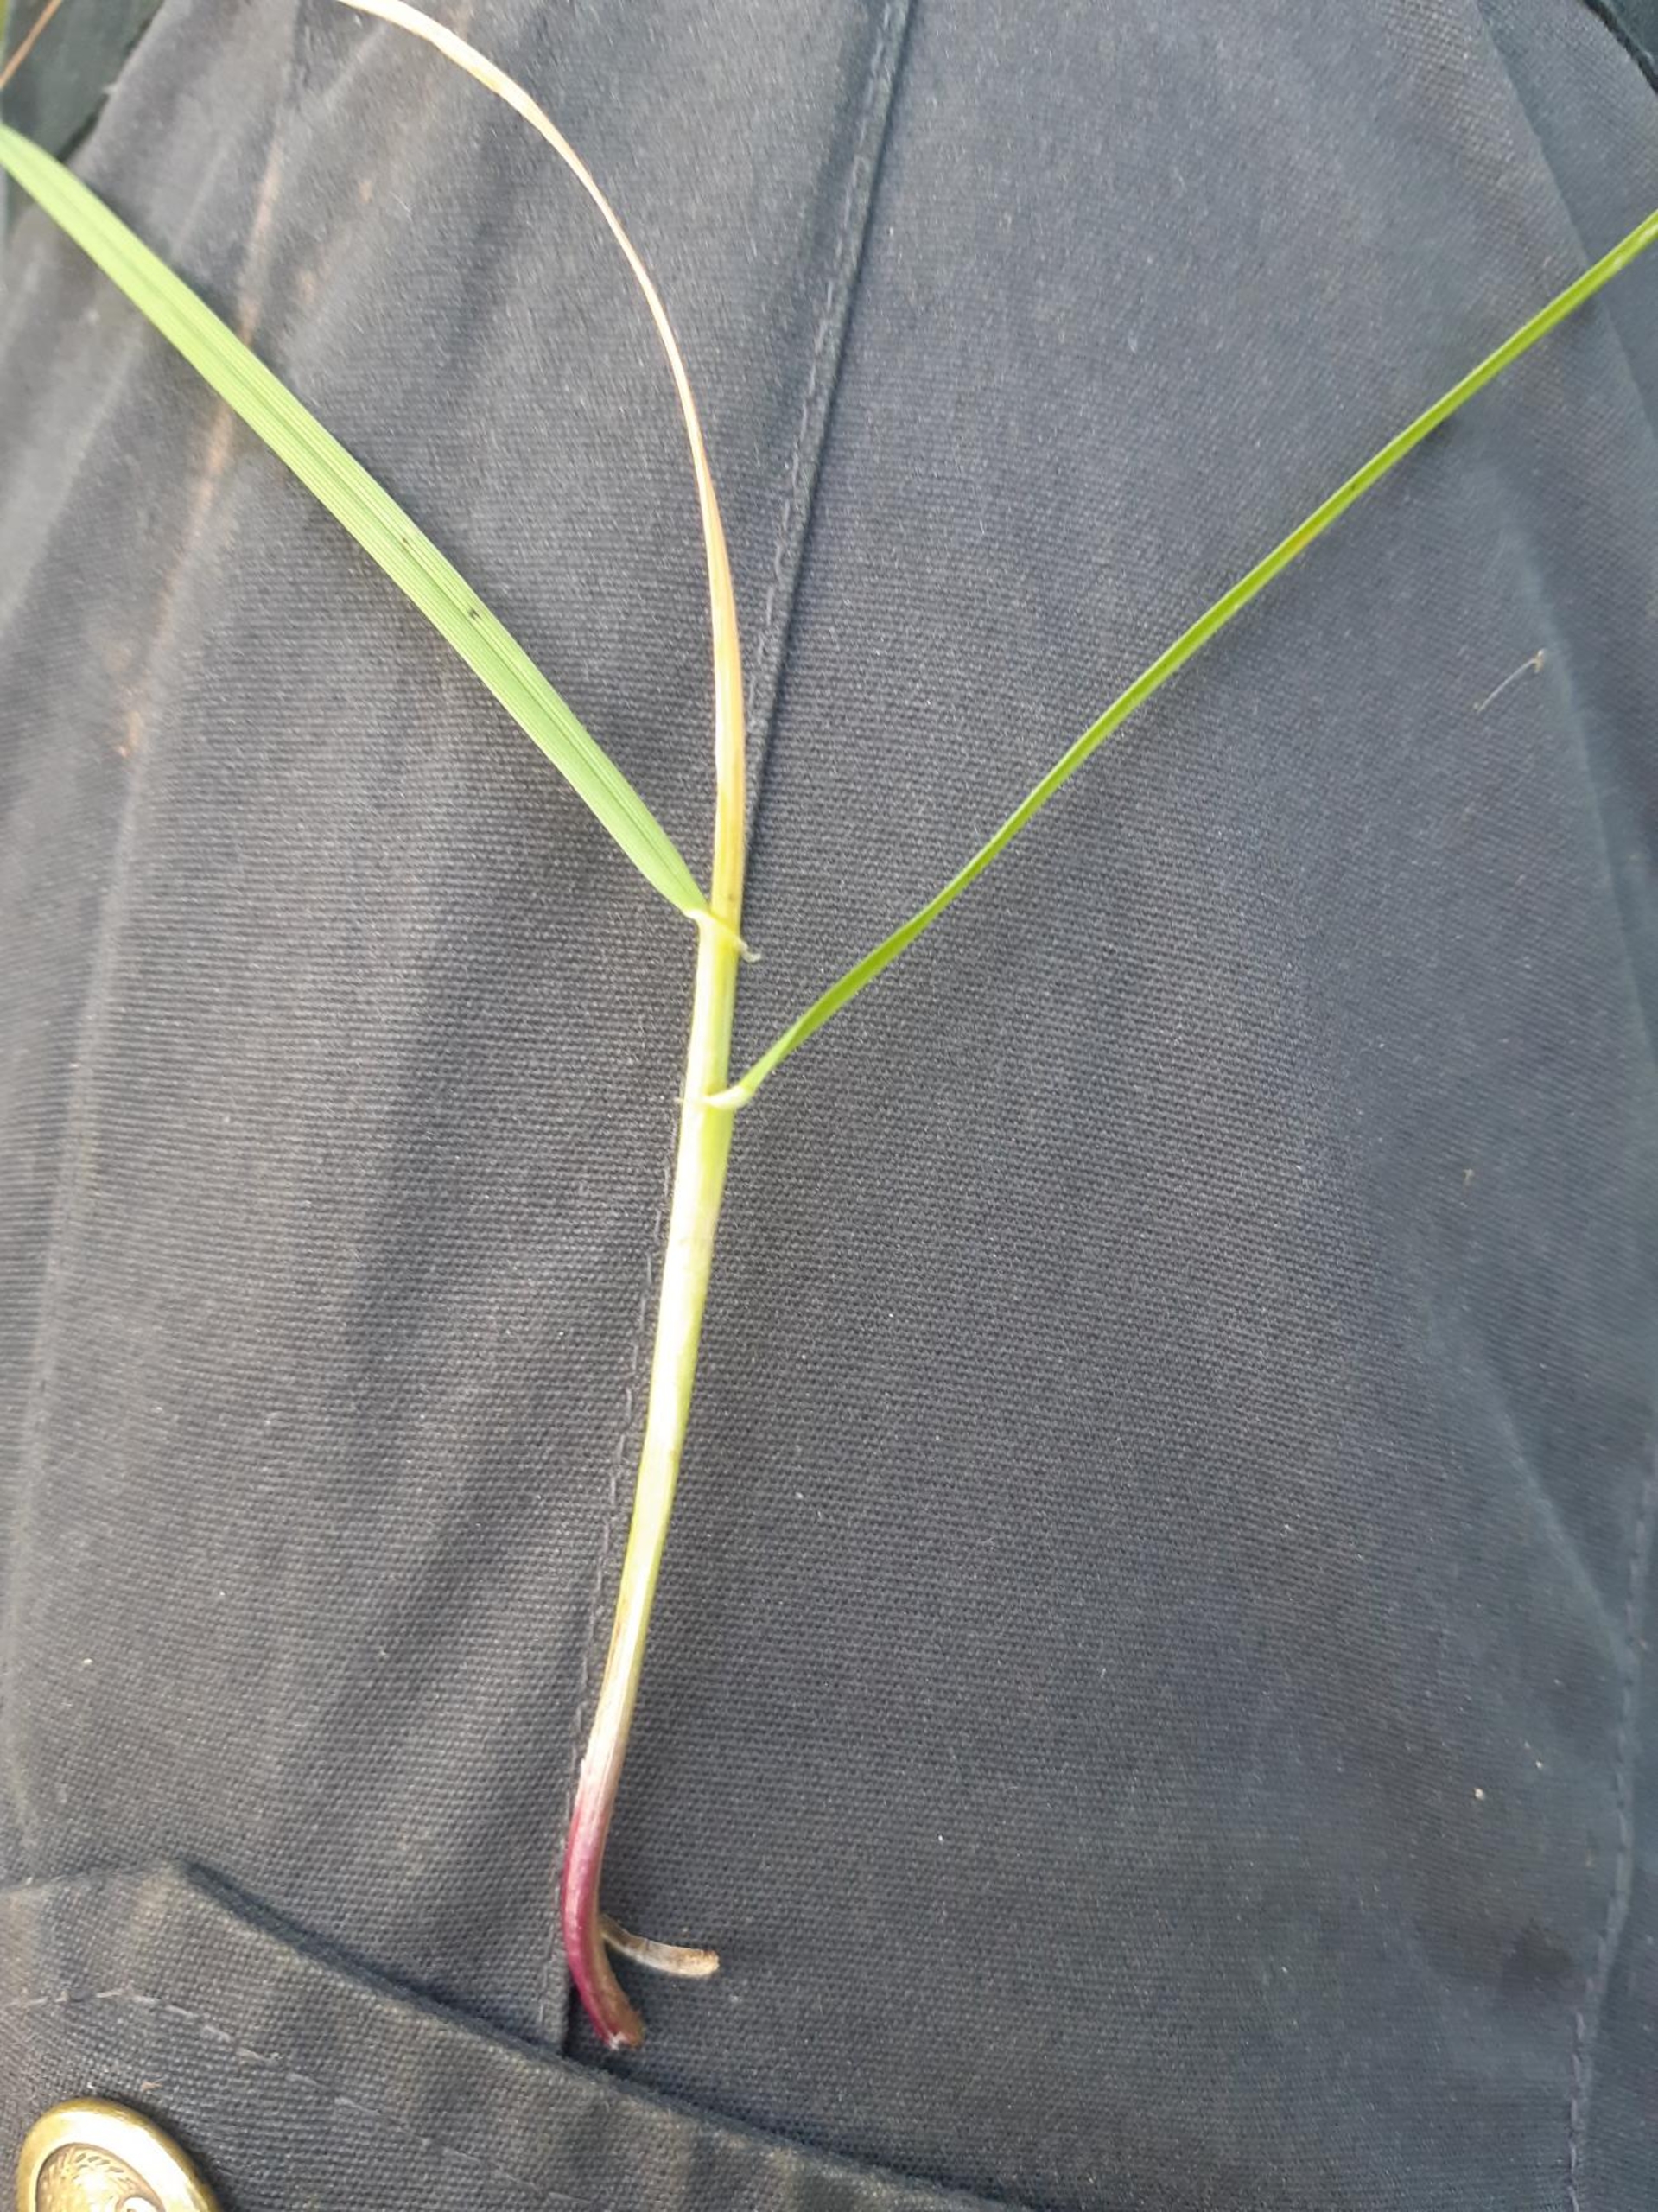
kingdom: Plantae
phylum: Tracheophyta
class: Liliopsida
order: Poales
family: Poaceae
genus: Lolium
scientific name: Lolium perenne
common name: Almindelig rajgræs
